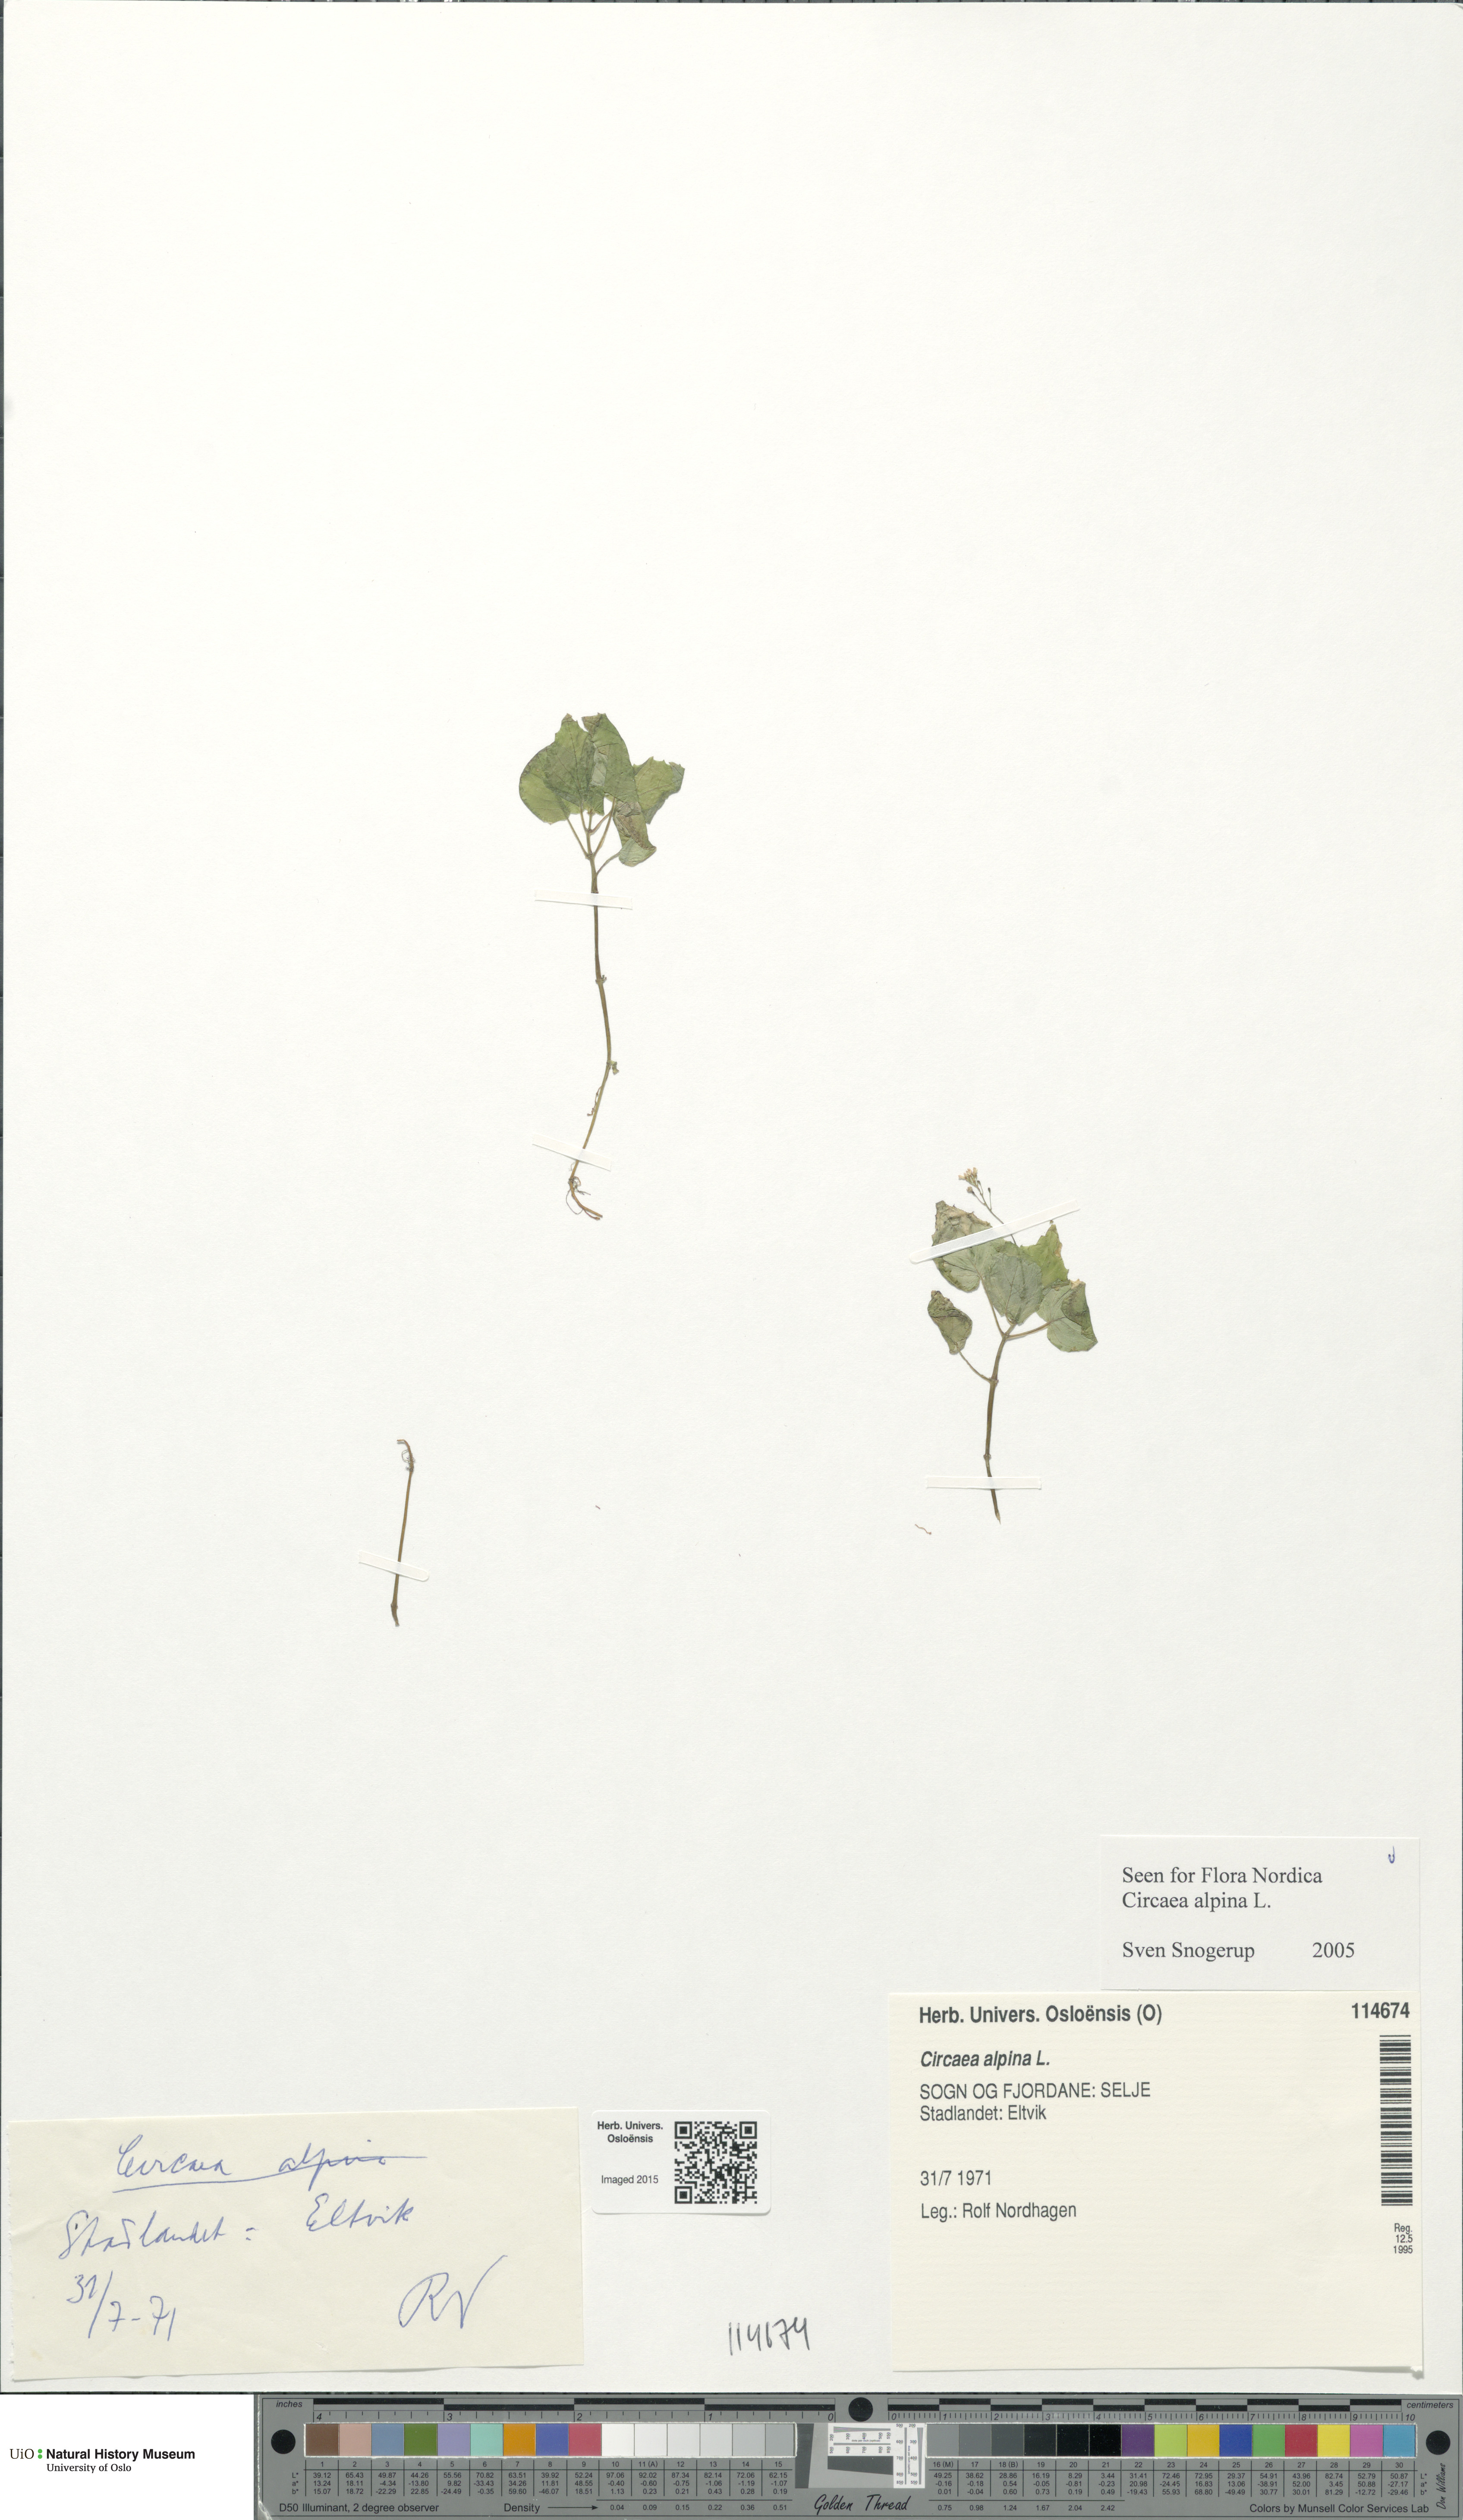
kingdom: Plantae
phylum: Tracheophyta
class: Magnoliopsida
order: Myrtales
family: Onagraceae
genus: Circaea
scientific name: Circaea alpina
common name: Alpine enchanter's-nightshade
